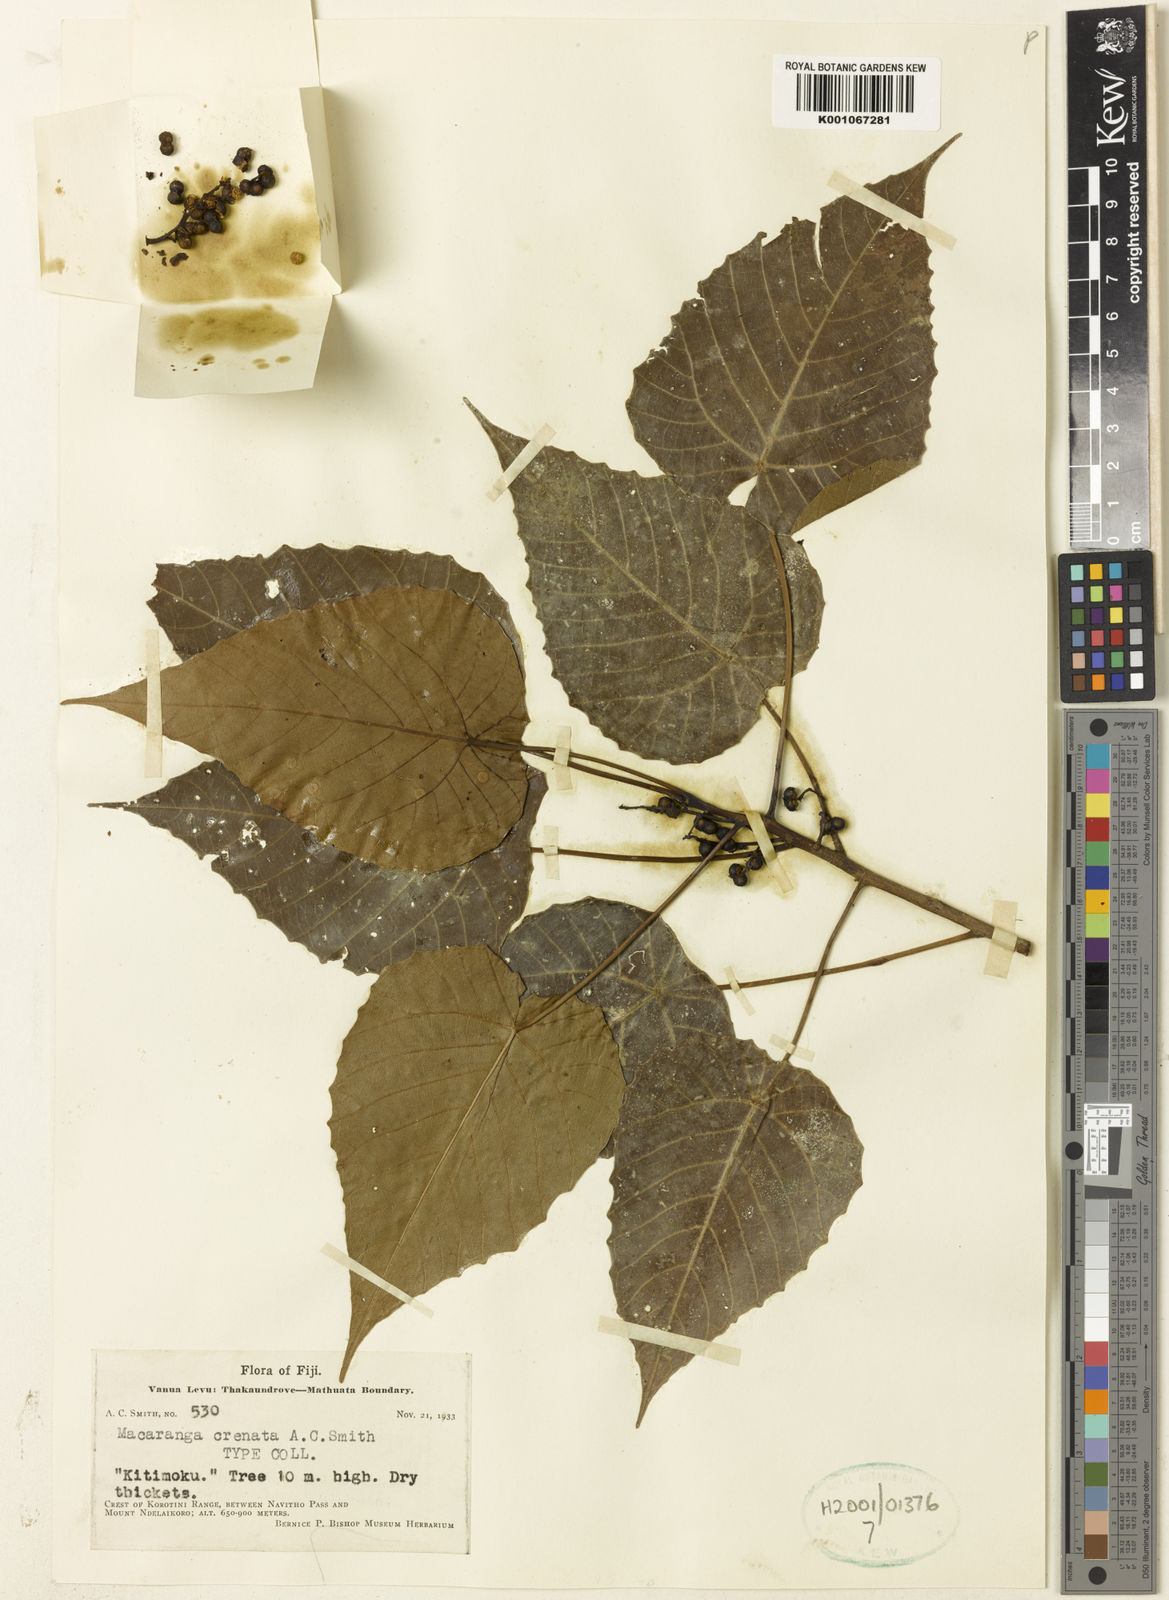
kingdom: Plantae
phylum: Tracheophyta
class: Magnoliopsida
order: Malpighiales
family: Euphorbiaceae
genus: Macaranga
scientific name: Macaranga graeffeana
